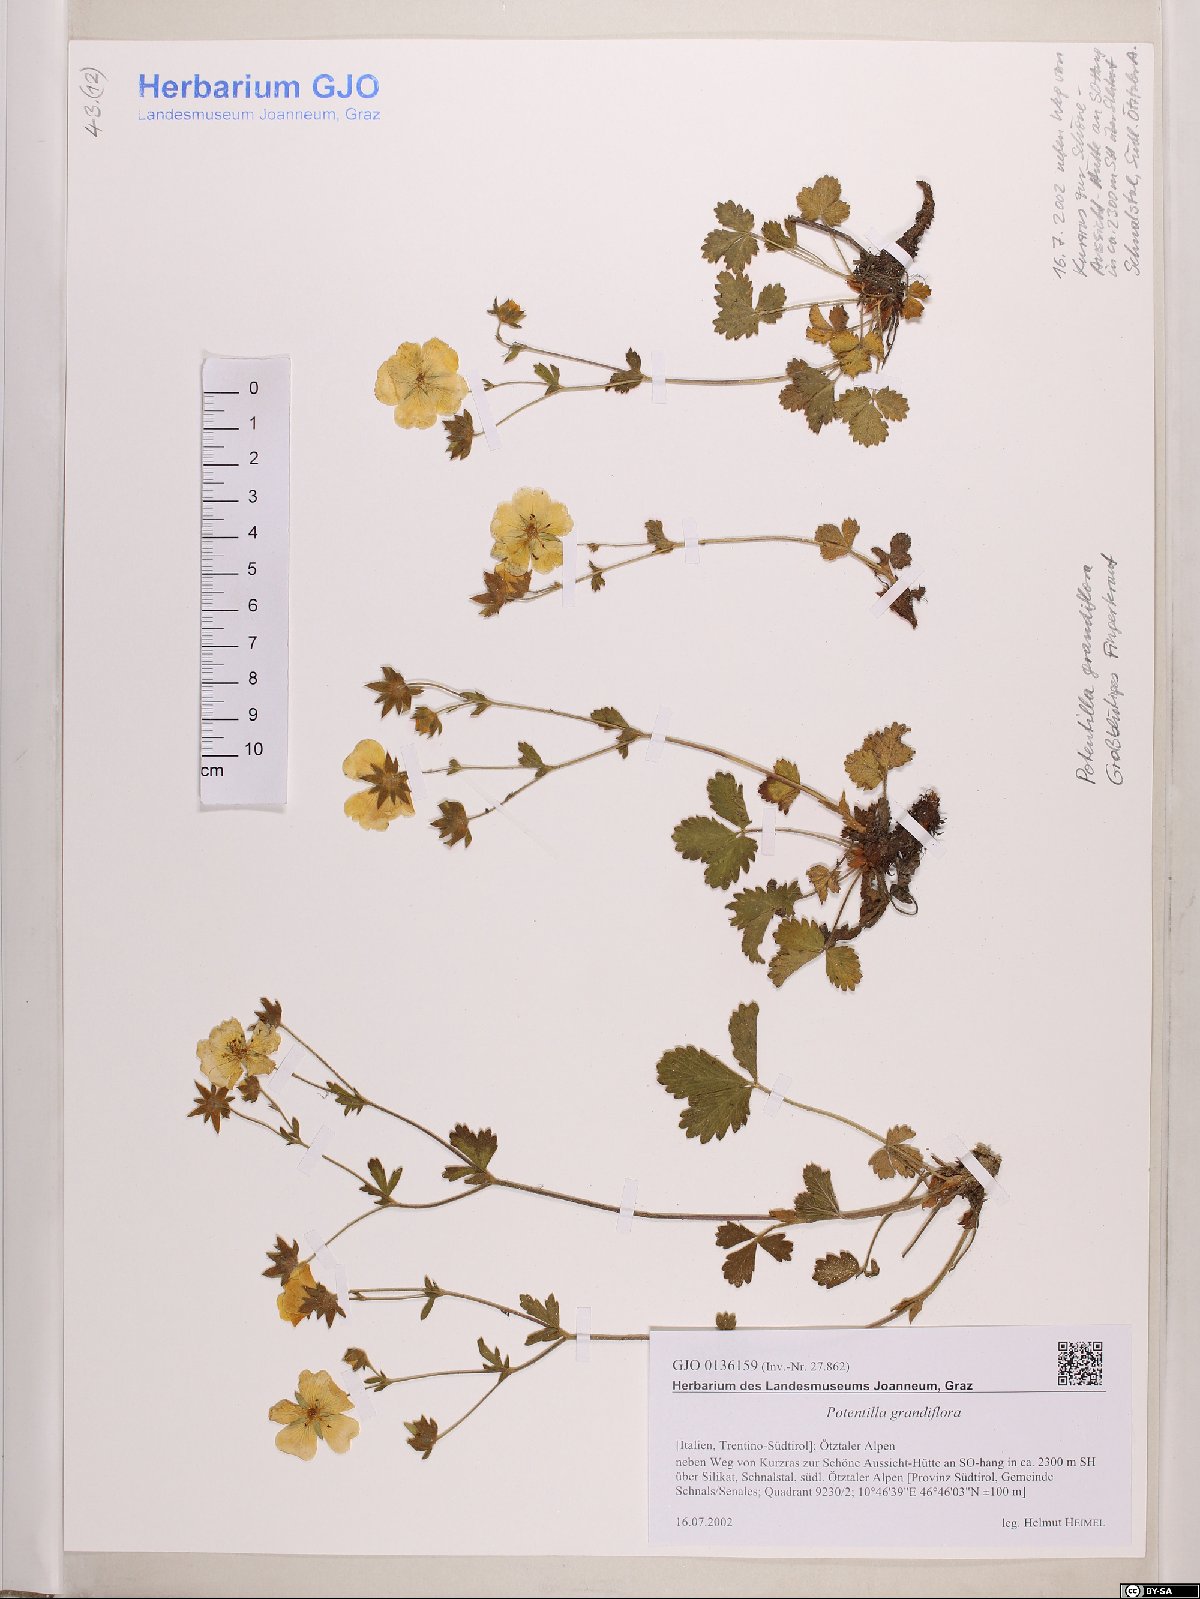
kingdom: Plantae
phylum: Tracheophyta
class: Magnoliopsida
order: Rosales
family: Rosaceae
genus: Potentilla
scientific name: Potentilla grandiflora
